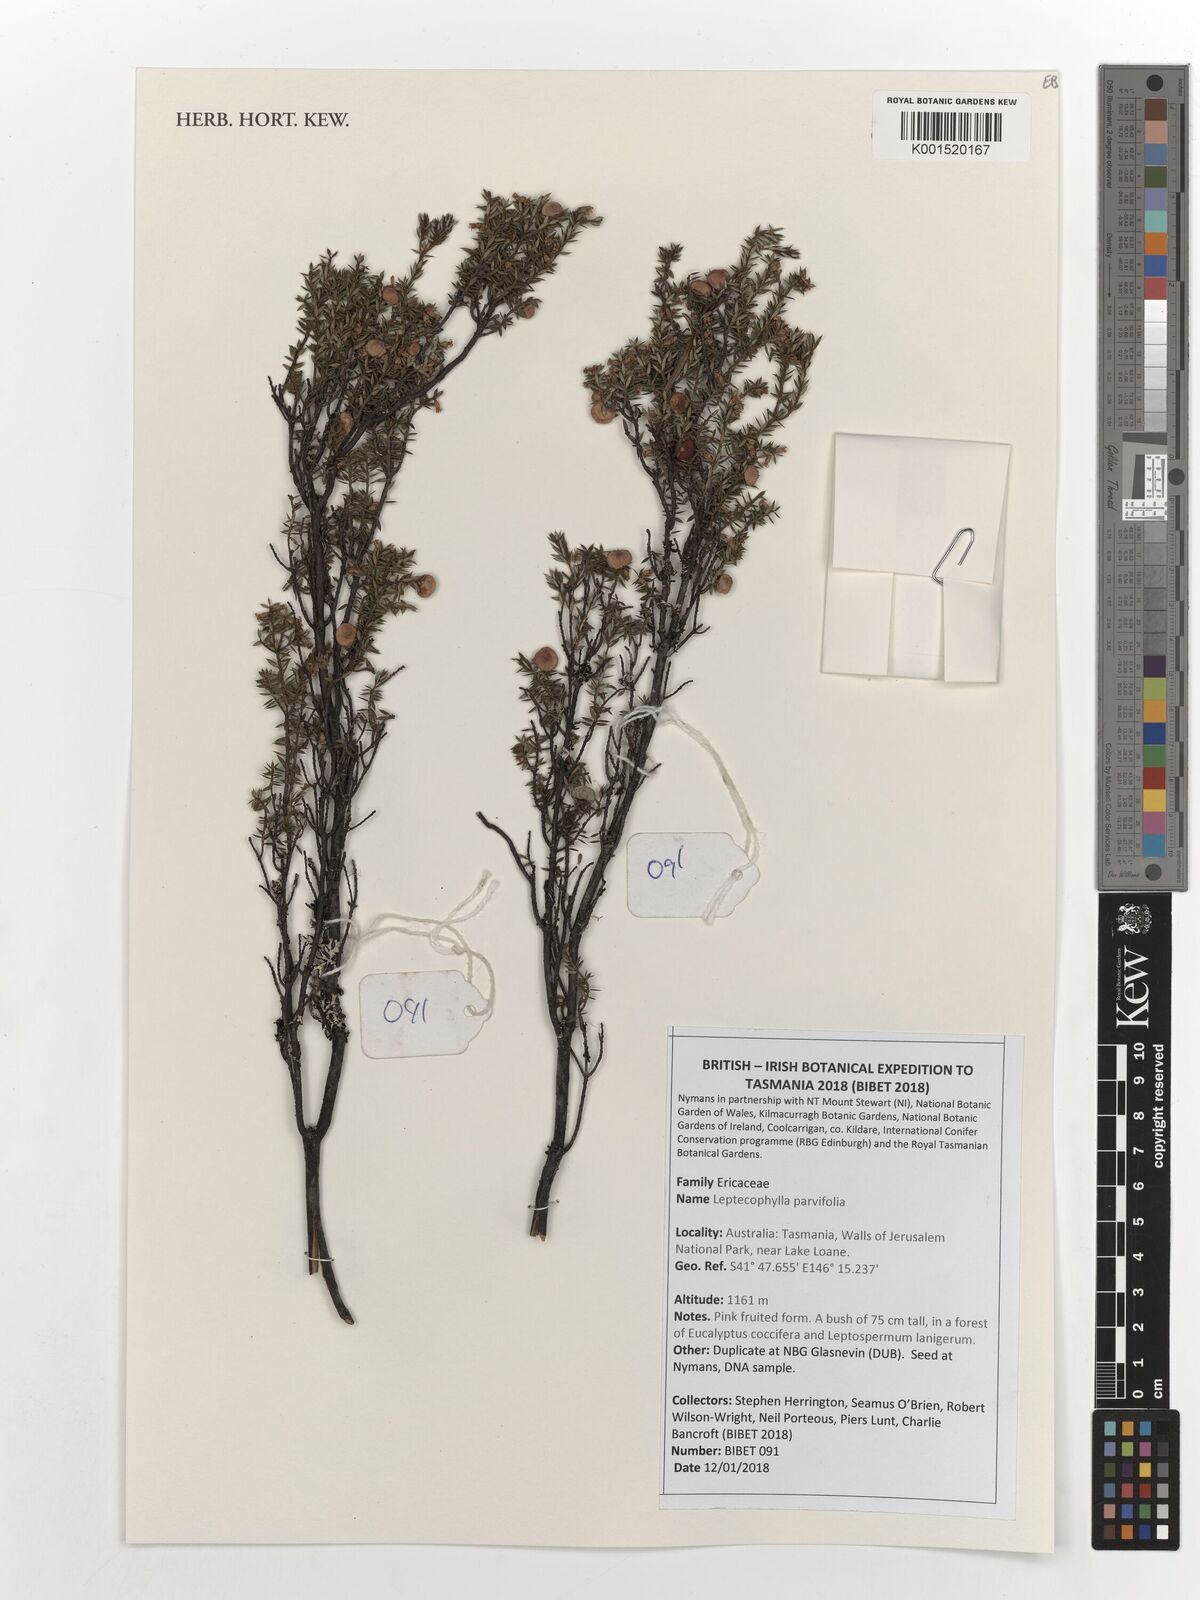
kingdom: Plantae
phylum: Tracheophyta
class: Magnoliopsida
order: Ericales
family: Ericaceae
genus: Leptecophylla
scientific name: Leptecophylla
